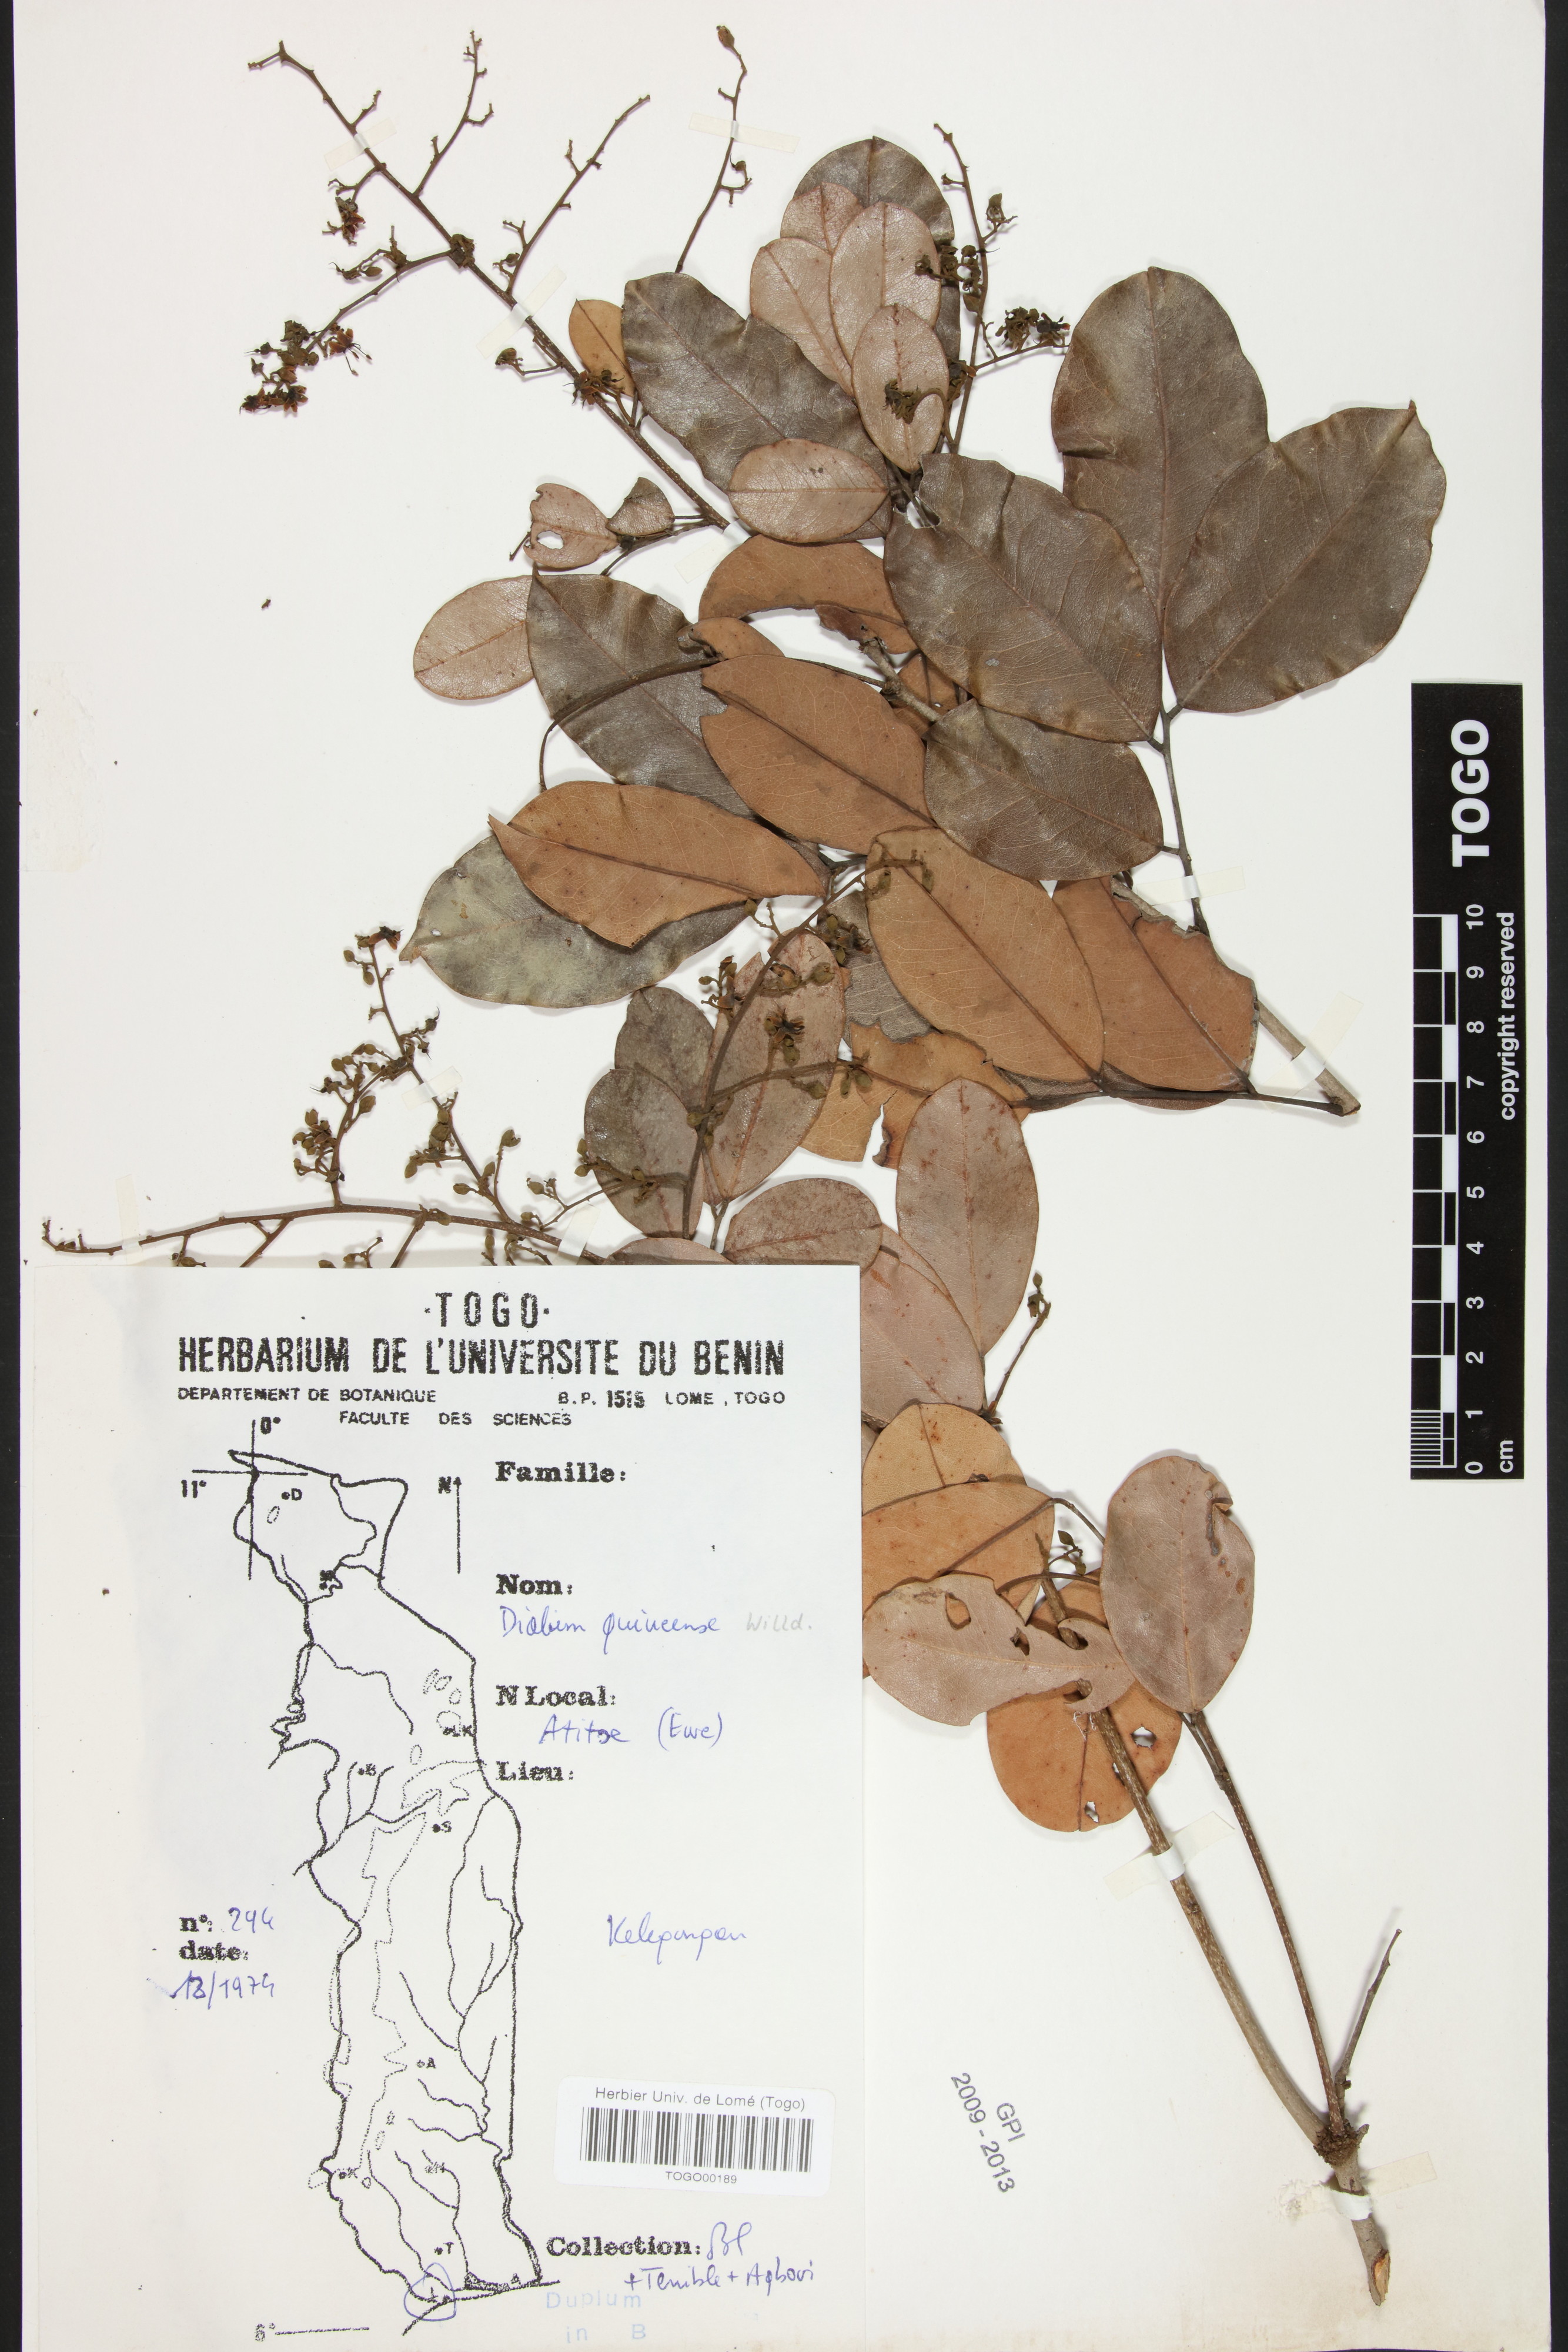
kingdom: Plantae
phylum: Tracheophyta
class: Magnoliopsida
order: Fabales
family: Fabaceae
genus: Dialium
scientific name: Dialium guineense
